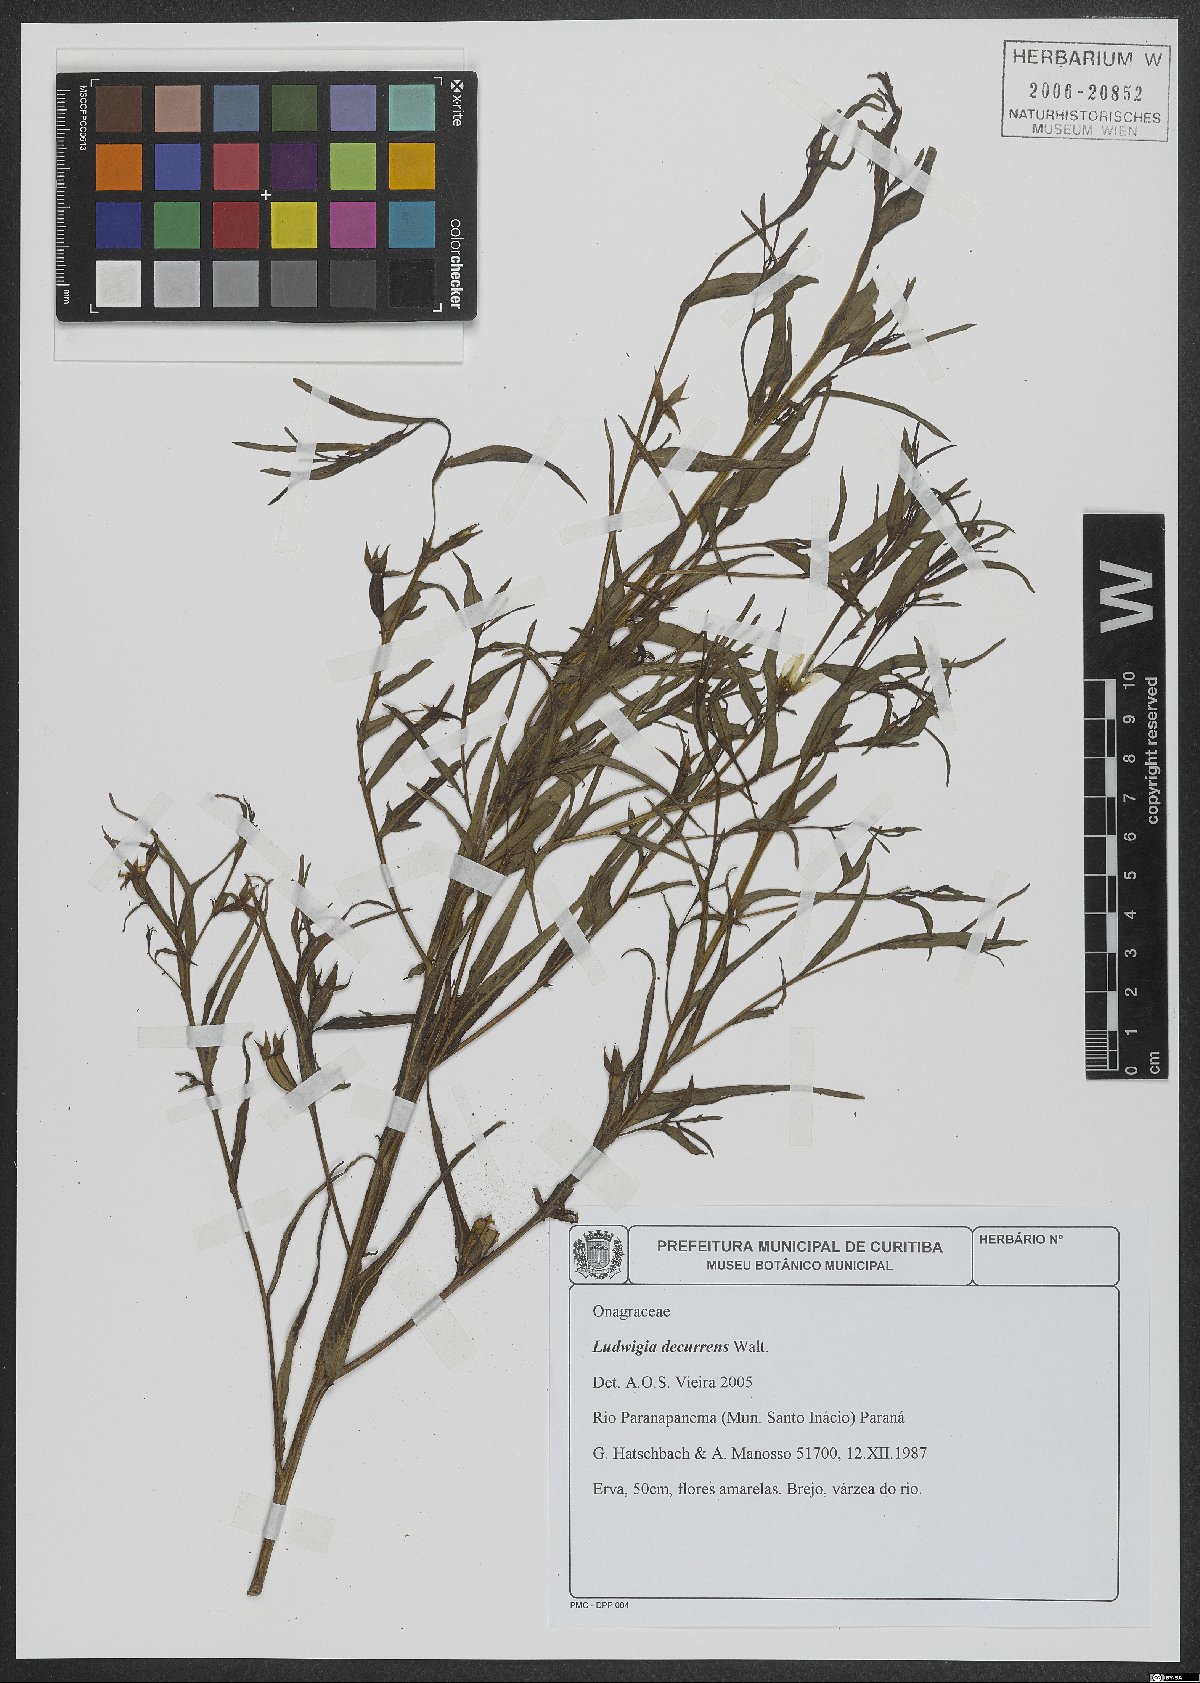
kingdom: Plantae
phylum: Tracheophyta
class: Magnoliopsida
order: Myrtales
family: Onagraceae
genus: Ludwigia
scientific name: Ludwigia decurrens
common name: Winged water-primrose
